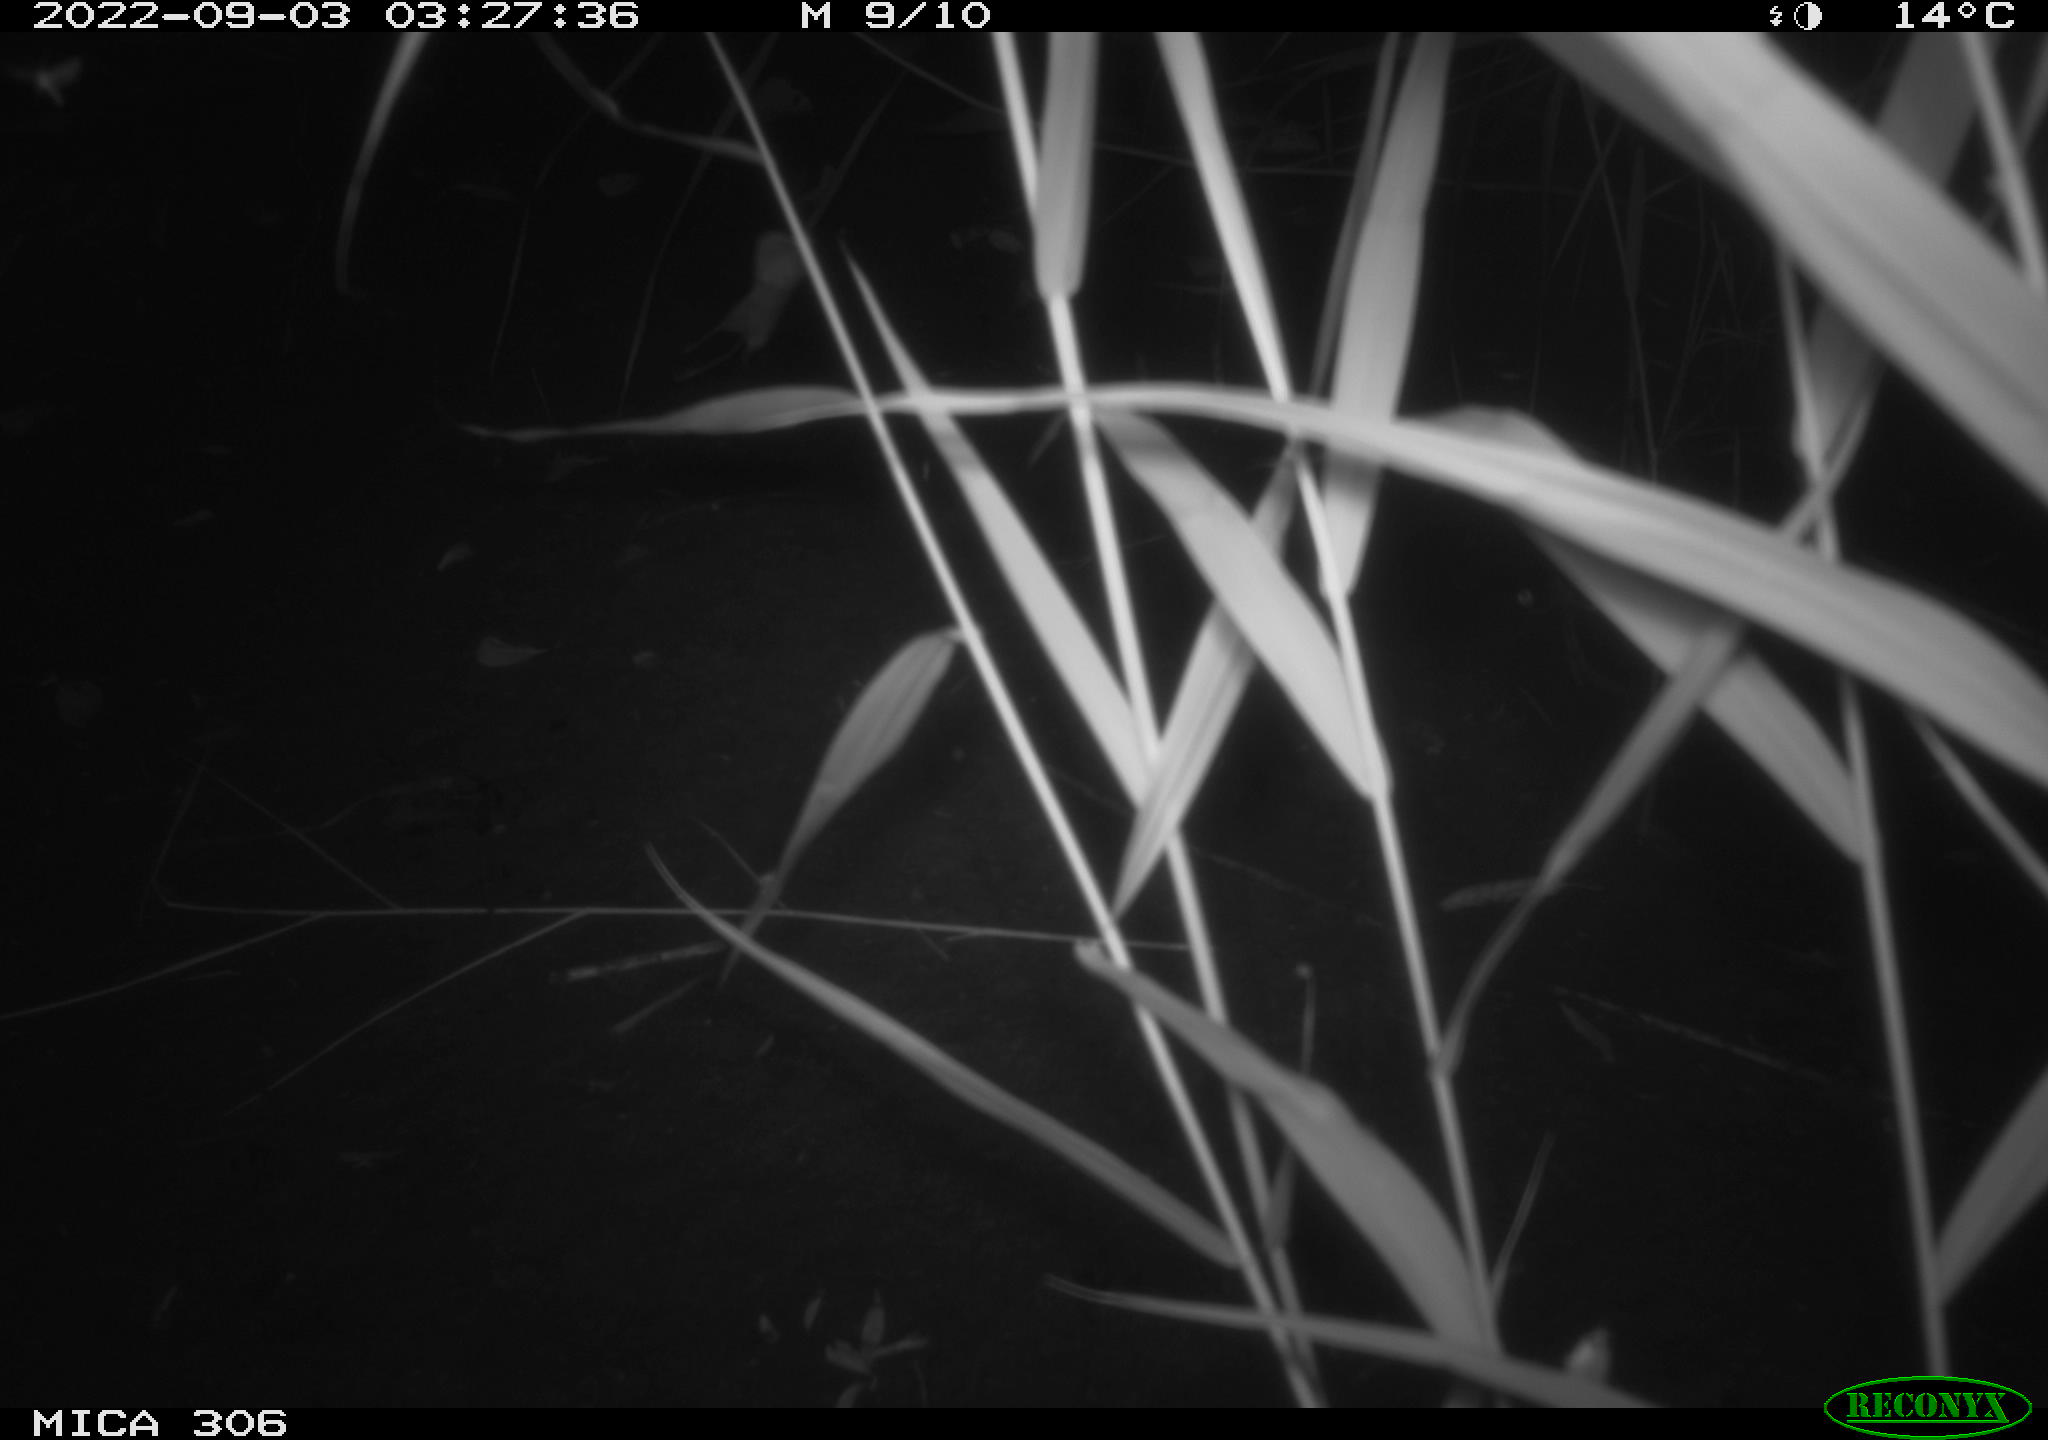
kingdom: Animalia
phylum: Chordata
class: Mammalia
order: Rodentia
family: Muridae
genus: Rattus
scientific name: Rattus norvegicus
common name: Brown rat
